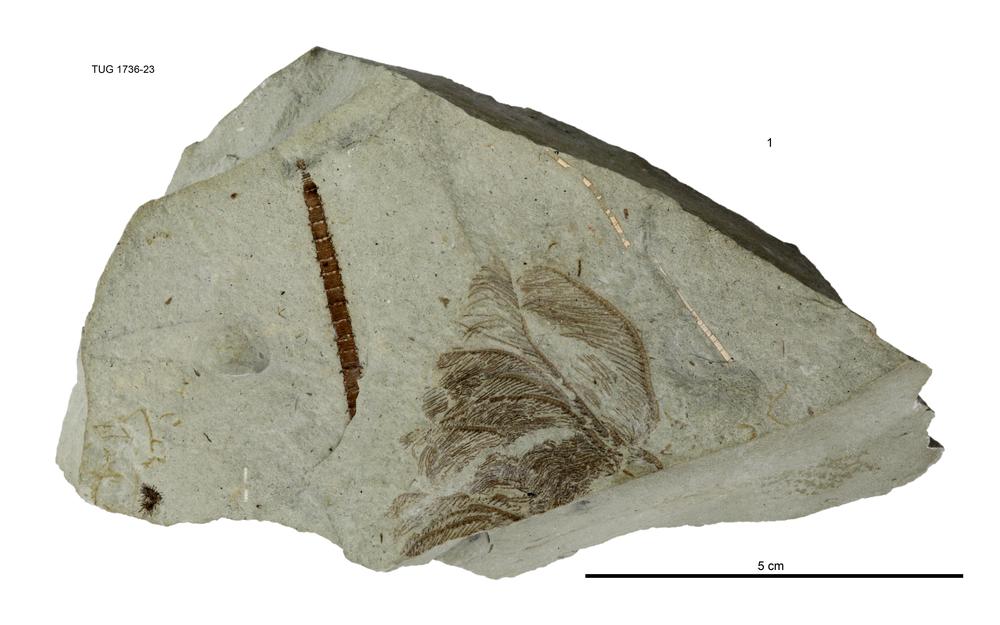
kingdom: Animalia
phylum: Echinodermata
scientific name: Echinodermata
